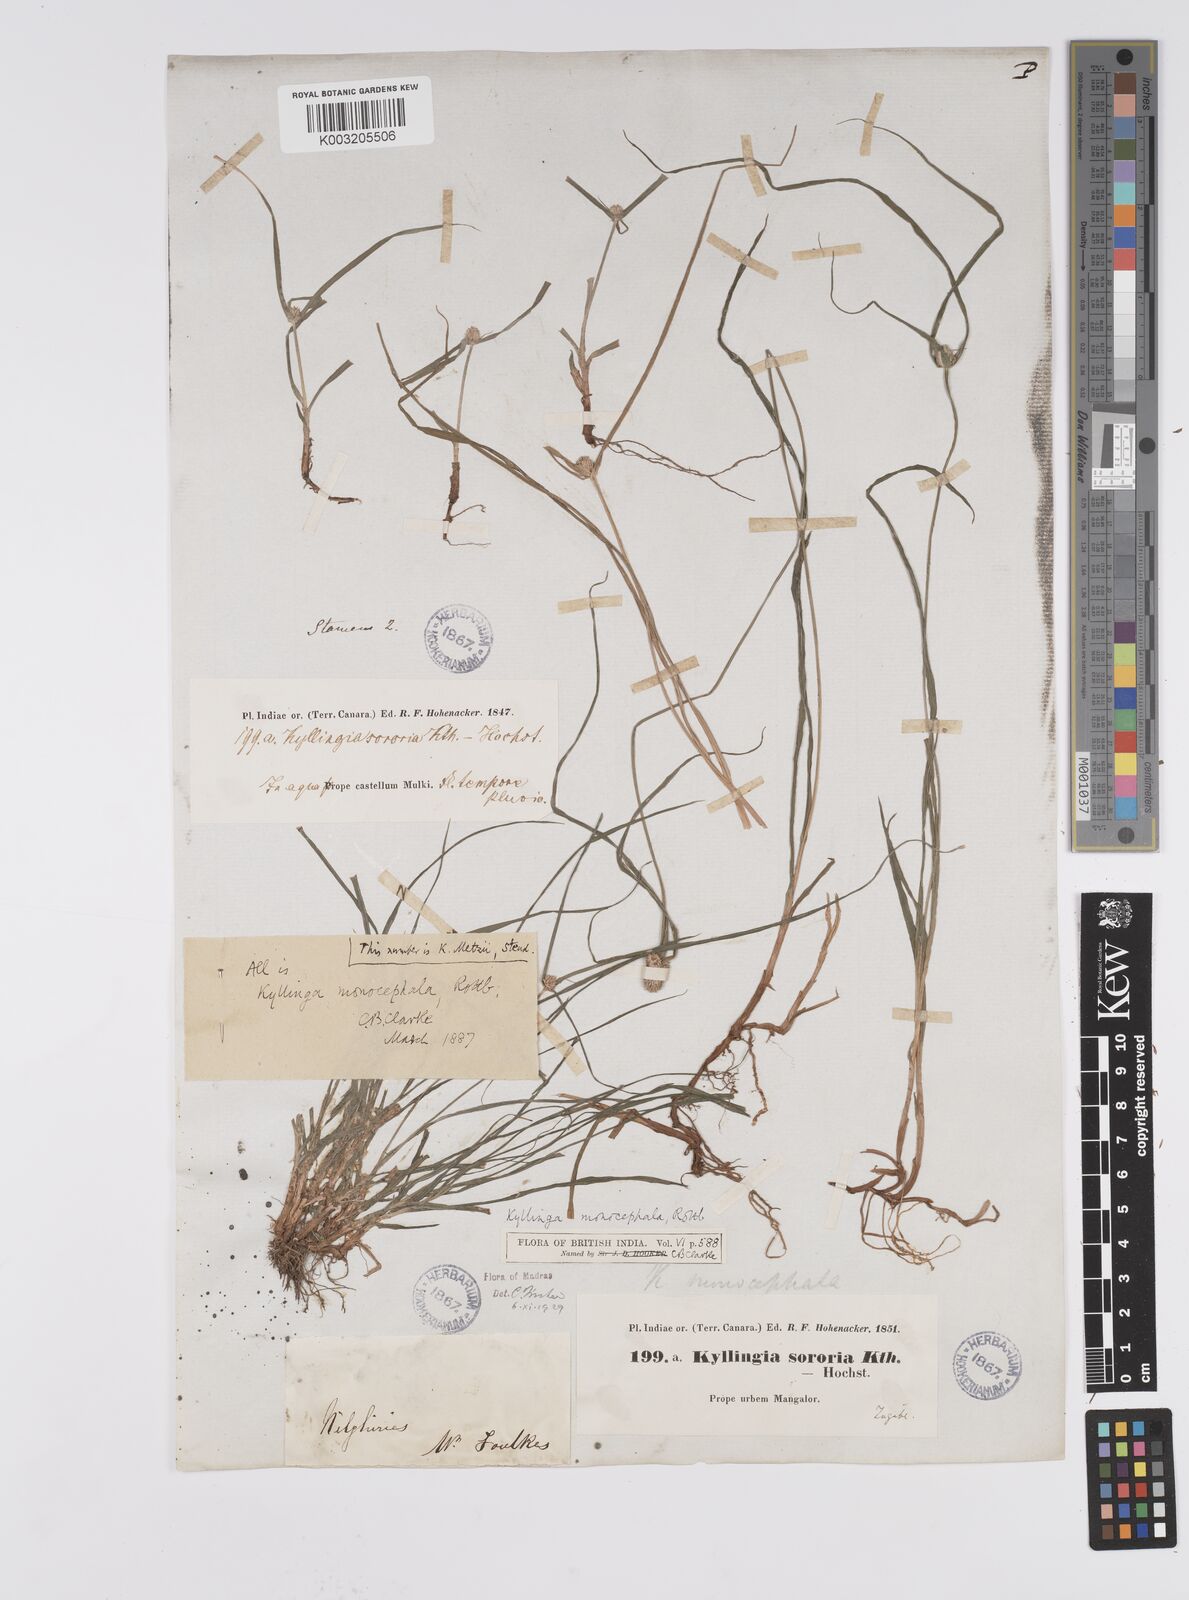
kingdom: Plantae
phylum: Tracheophyta
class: Liliopsida
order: Poales
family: Cyperaceae
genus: Rhynchospora
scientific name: Rhynchospora colorata
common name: Star sedge
